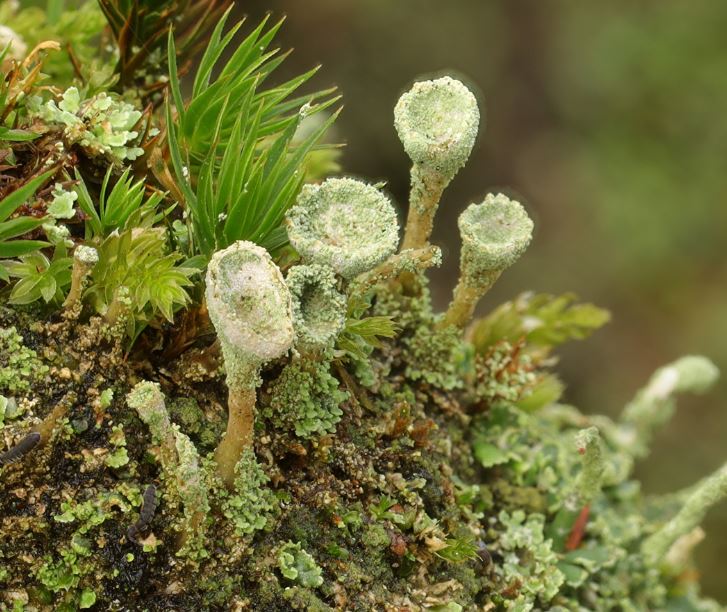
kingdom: Fungi
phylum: Ascomycota
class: Lecanoromycetes
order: Lecanorales
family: Cladoniaceae
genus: Cladonia
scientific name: Cladonia
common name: brungrøn bægerlav
